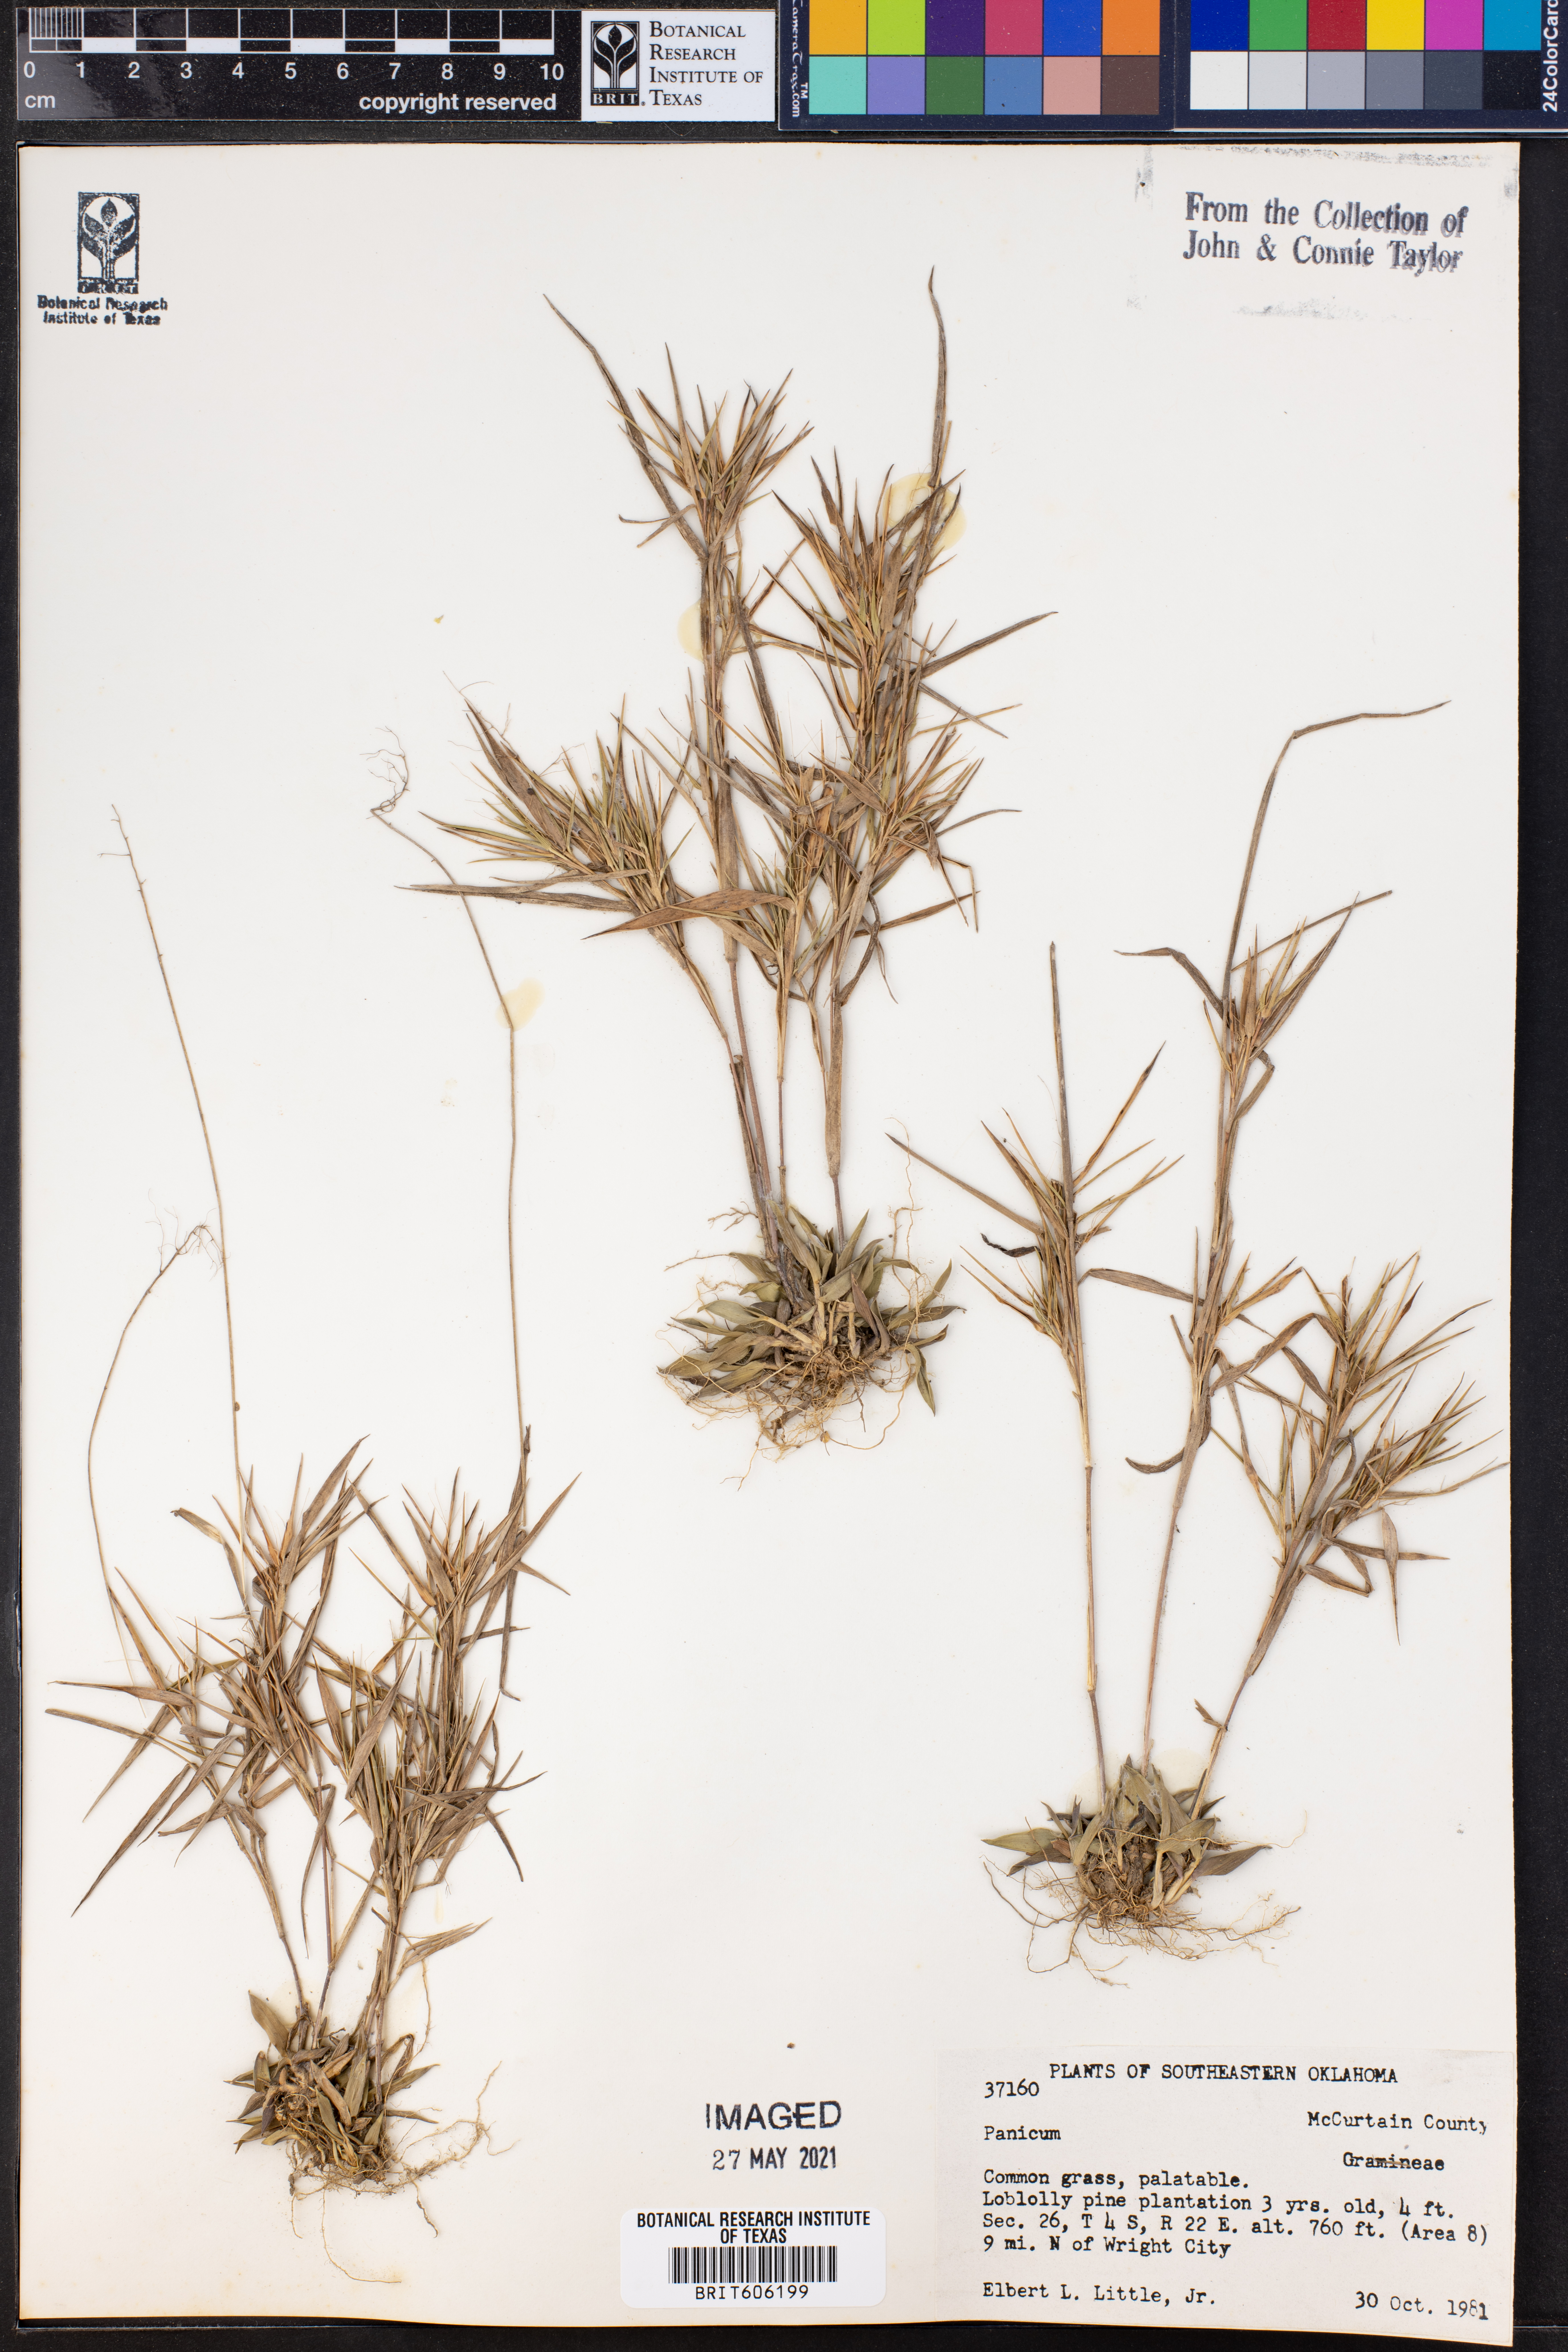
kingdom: Plantae
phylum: Tracheophyta
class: Liliopsida
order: Poales
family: Poaceae
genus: Panicum
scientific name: Panicum
